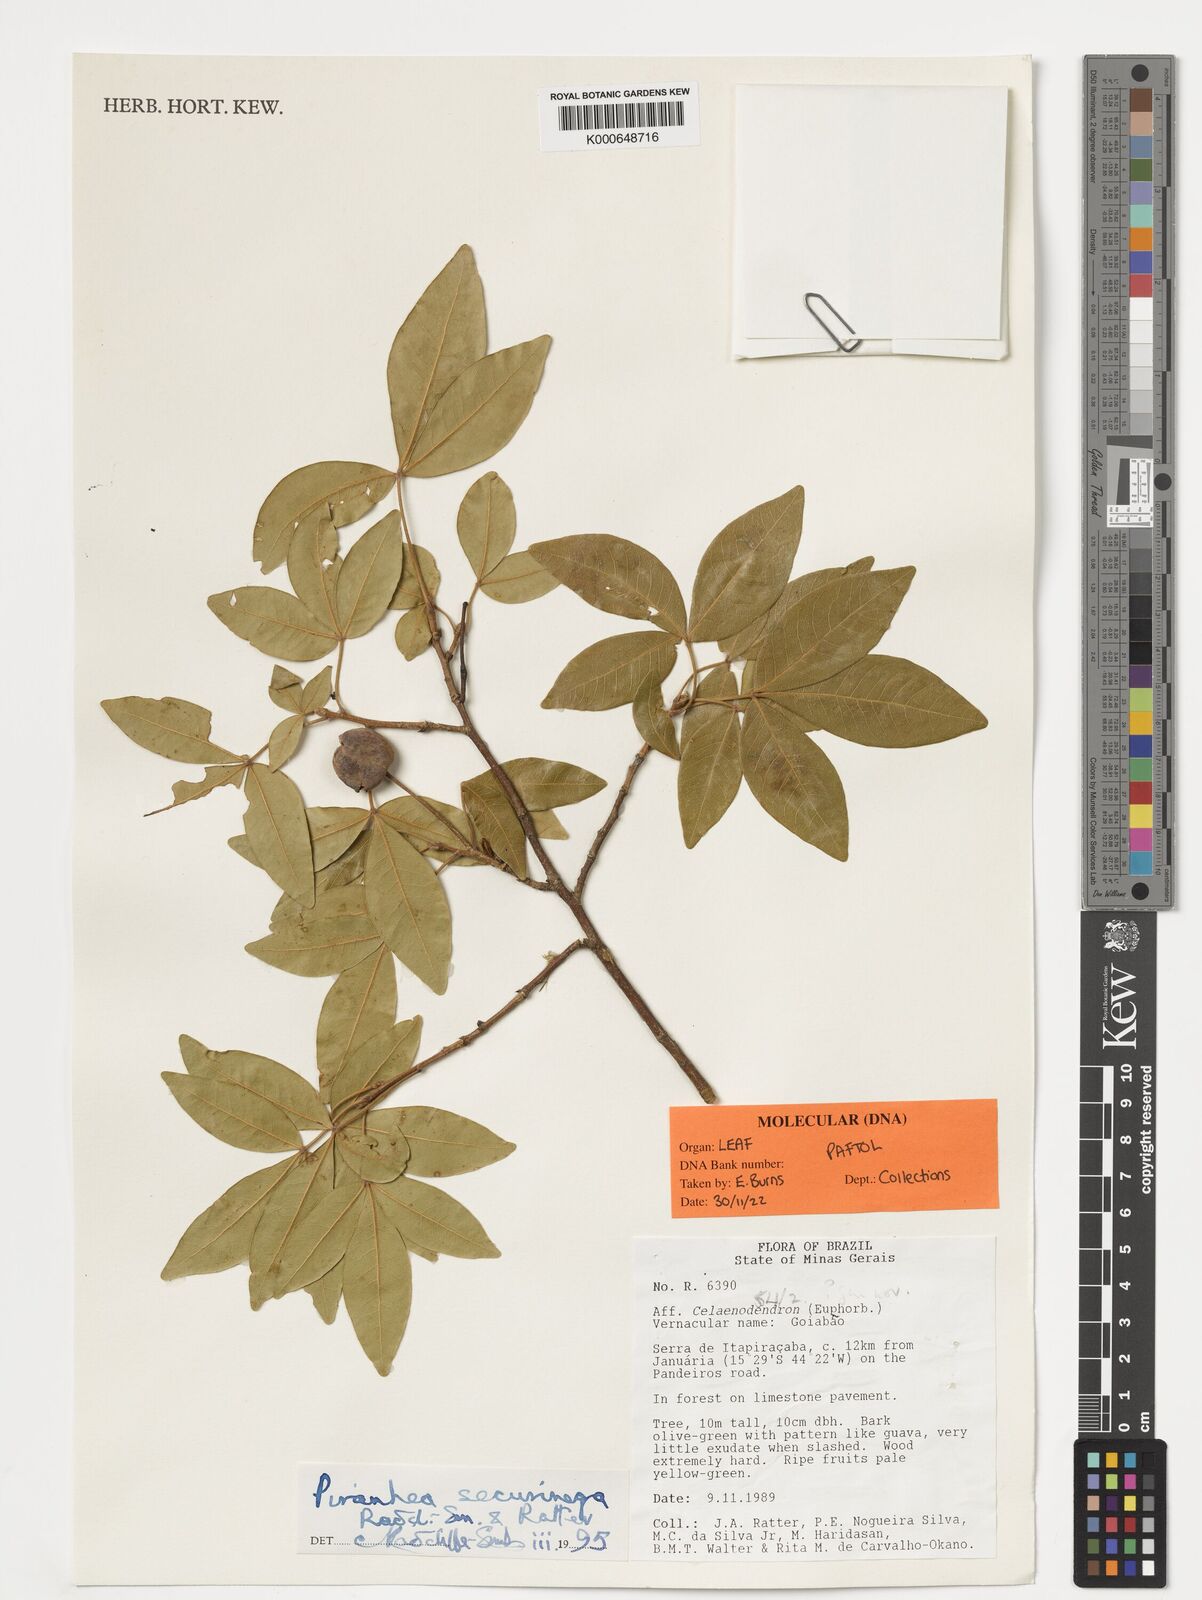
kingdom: Plantae
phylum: Tracheophyta
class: Magnoliopsida
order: Malpighiales
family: Picrodendraceae
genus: Piranhea
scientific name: Piranhea securinega
